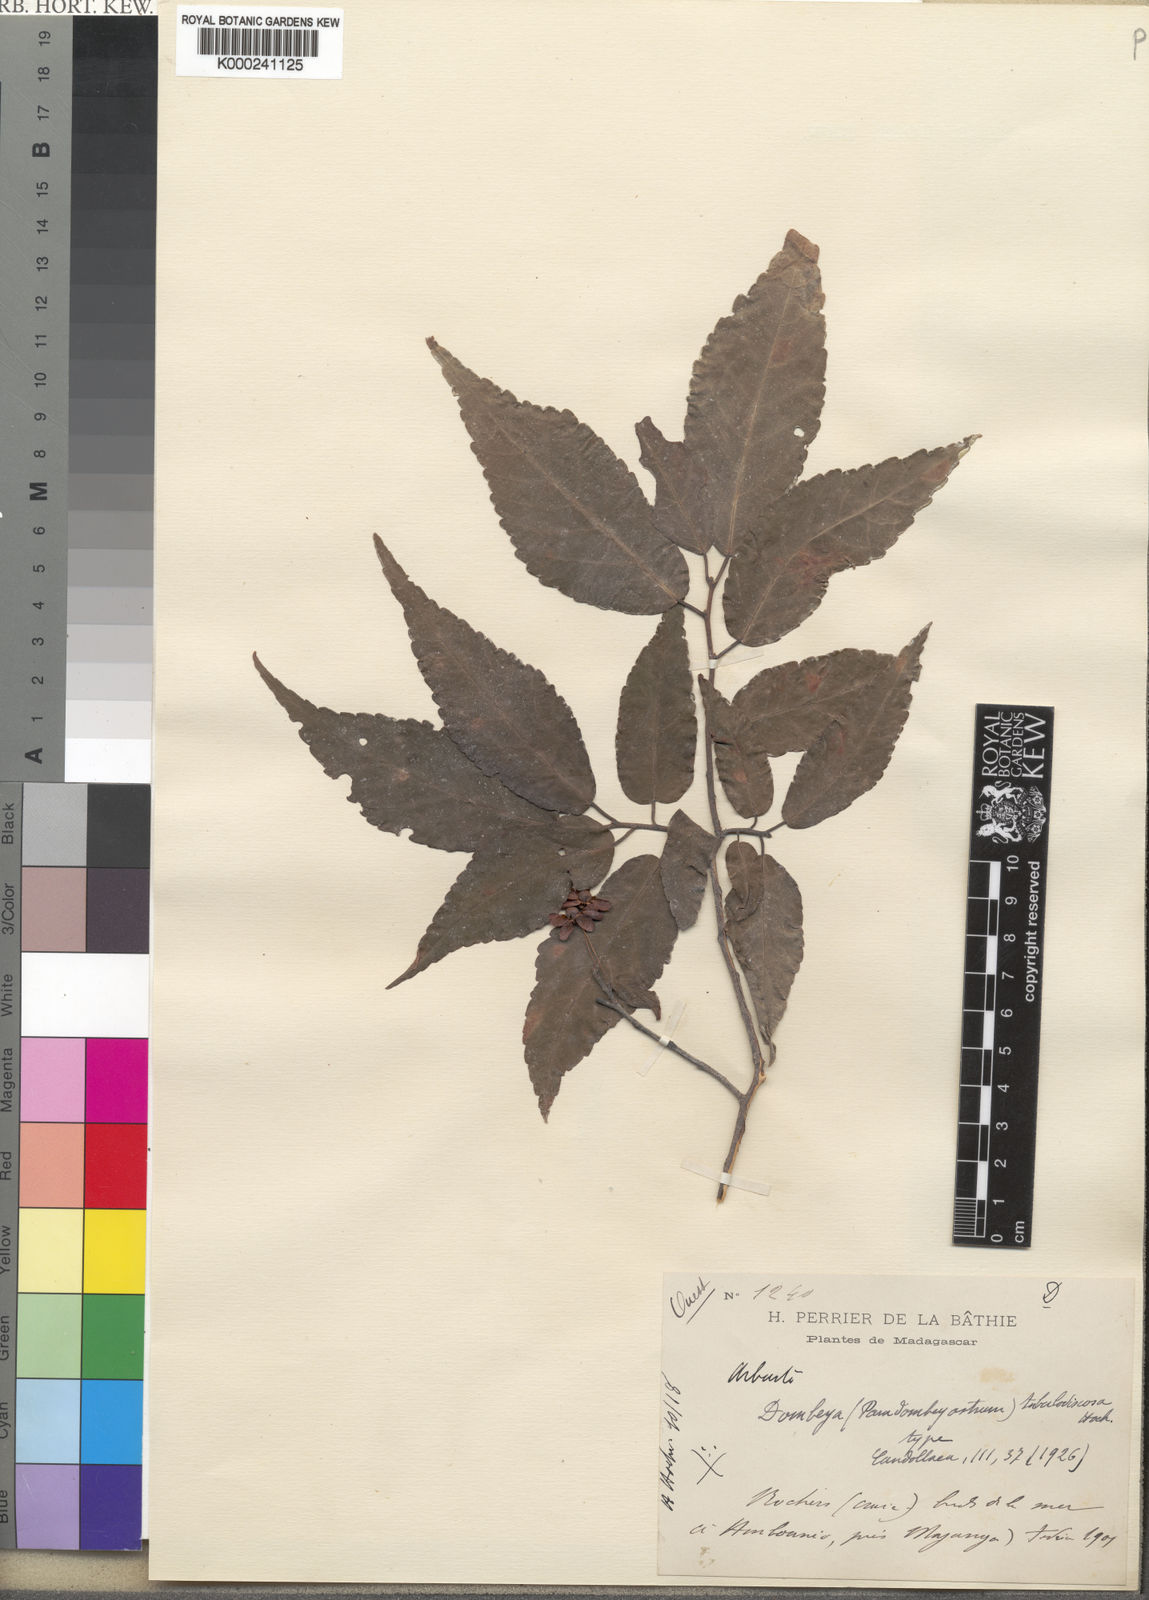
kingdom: Plantae
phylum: Tracheophyta
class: Magnoliopsida
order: Malvales
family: Malvaceae
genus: Dombeya
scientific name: Dombeya tubulosoviscosa
